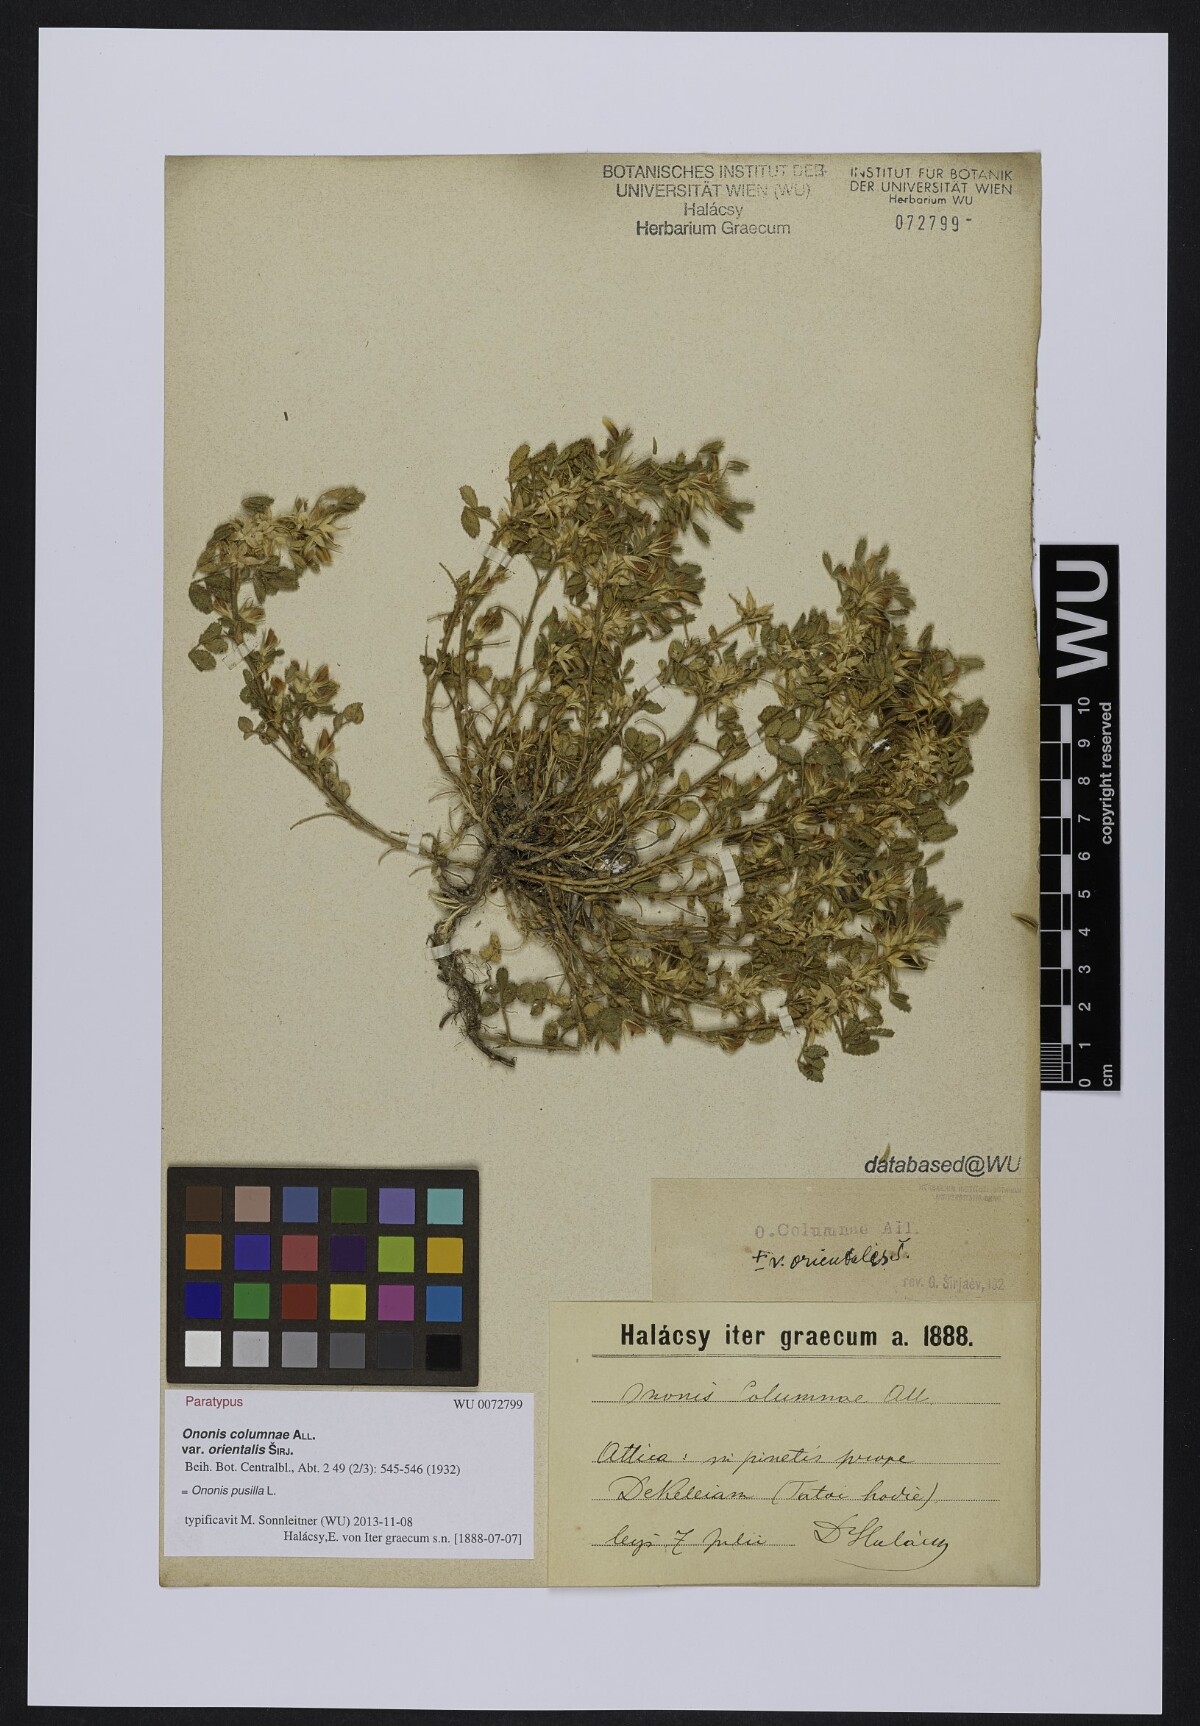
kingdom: Plantae
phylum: Tracheophyta
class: Magnoliopsida
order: Fabales
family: Fabaceae
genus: Ononis
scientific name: Ononis pusilla
